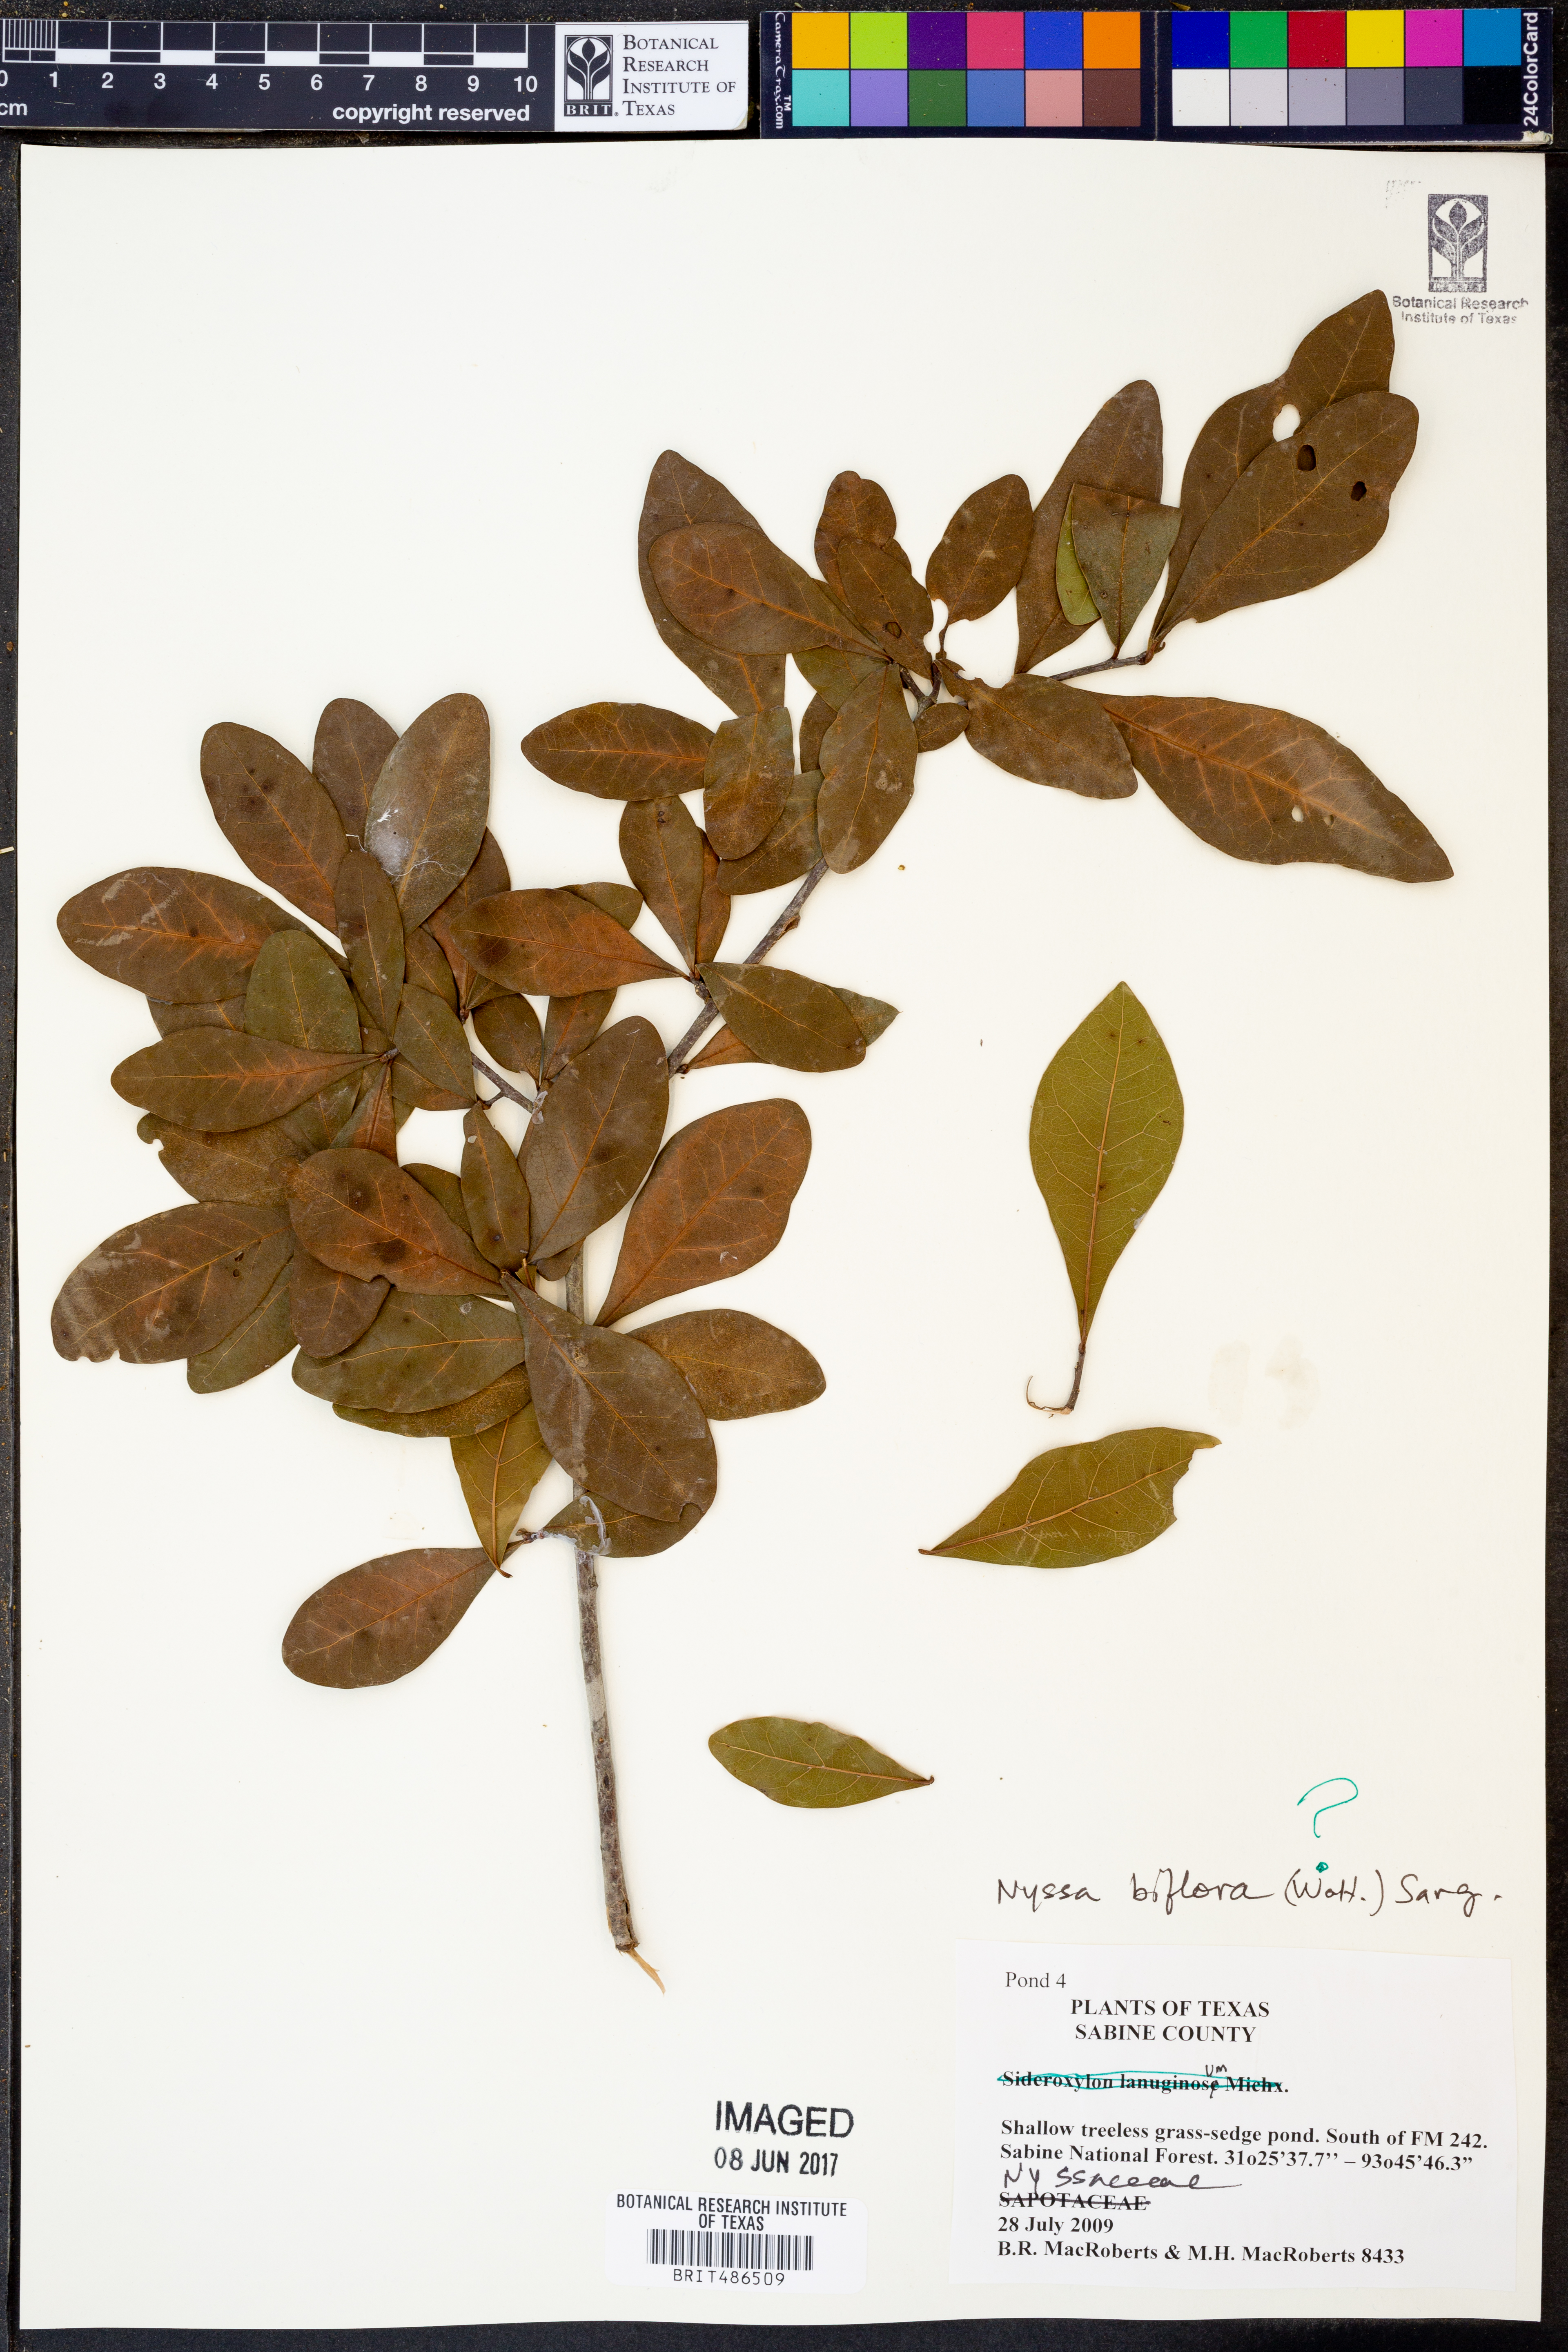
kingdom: Plantae
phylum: Tracheophyta
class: Magnoliopsida
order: Cornales
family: Nyssaceae
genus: Nyssa
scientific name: Nyssa biflora
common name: Swamp blackgum
